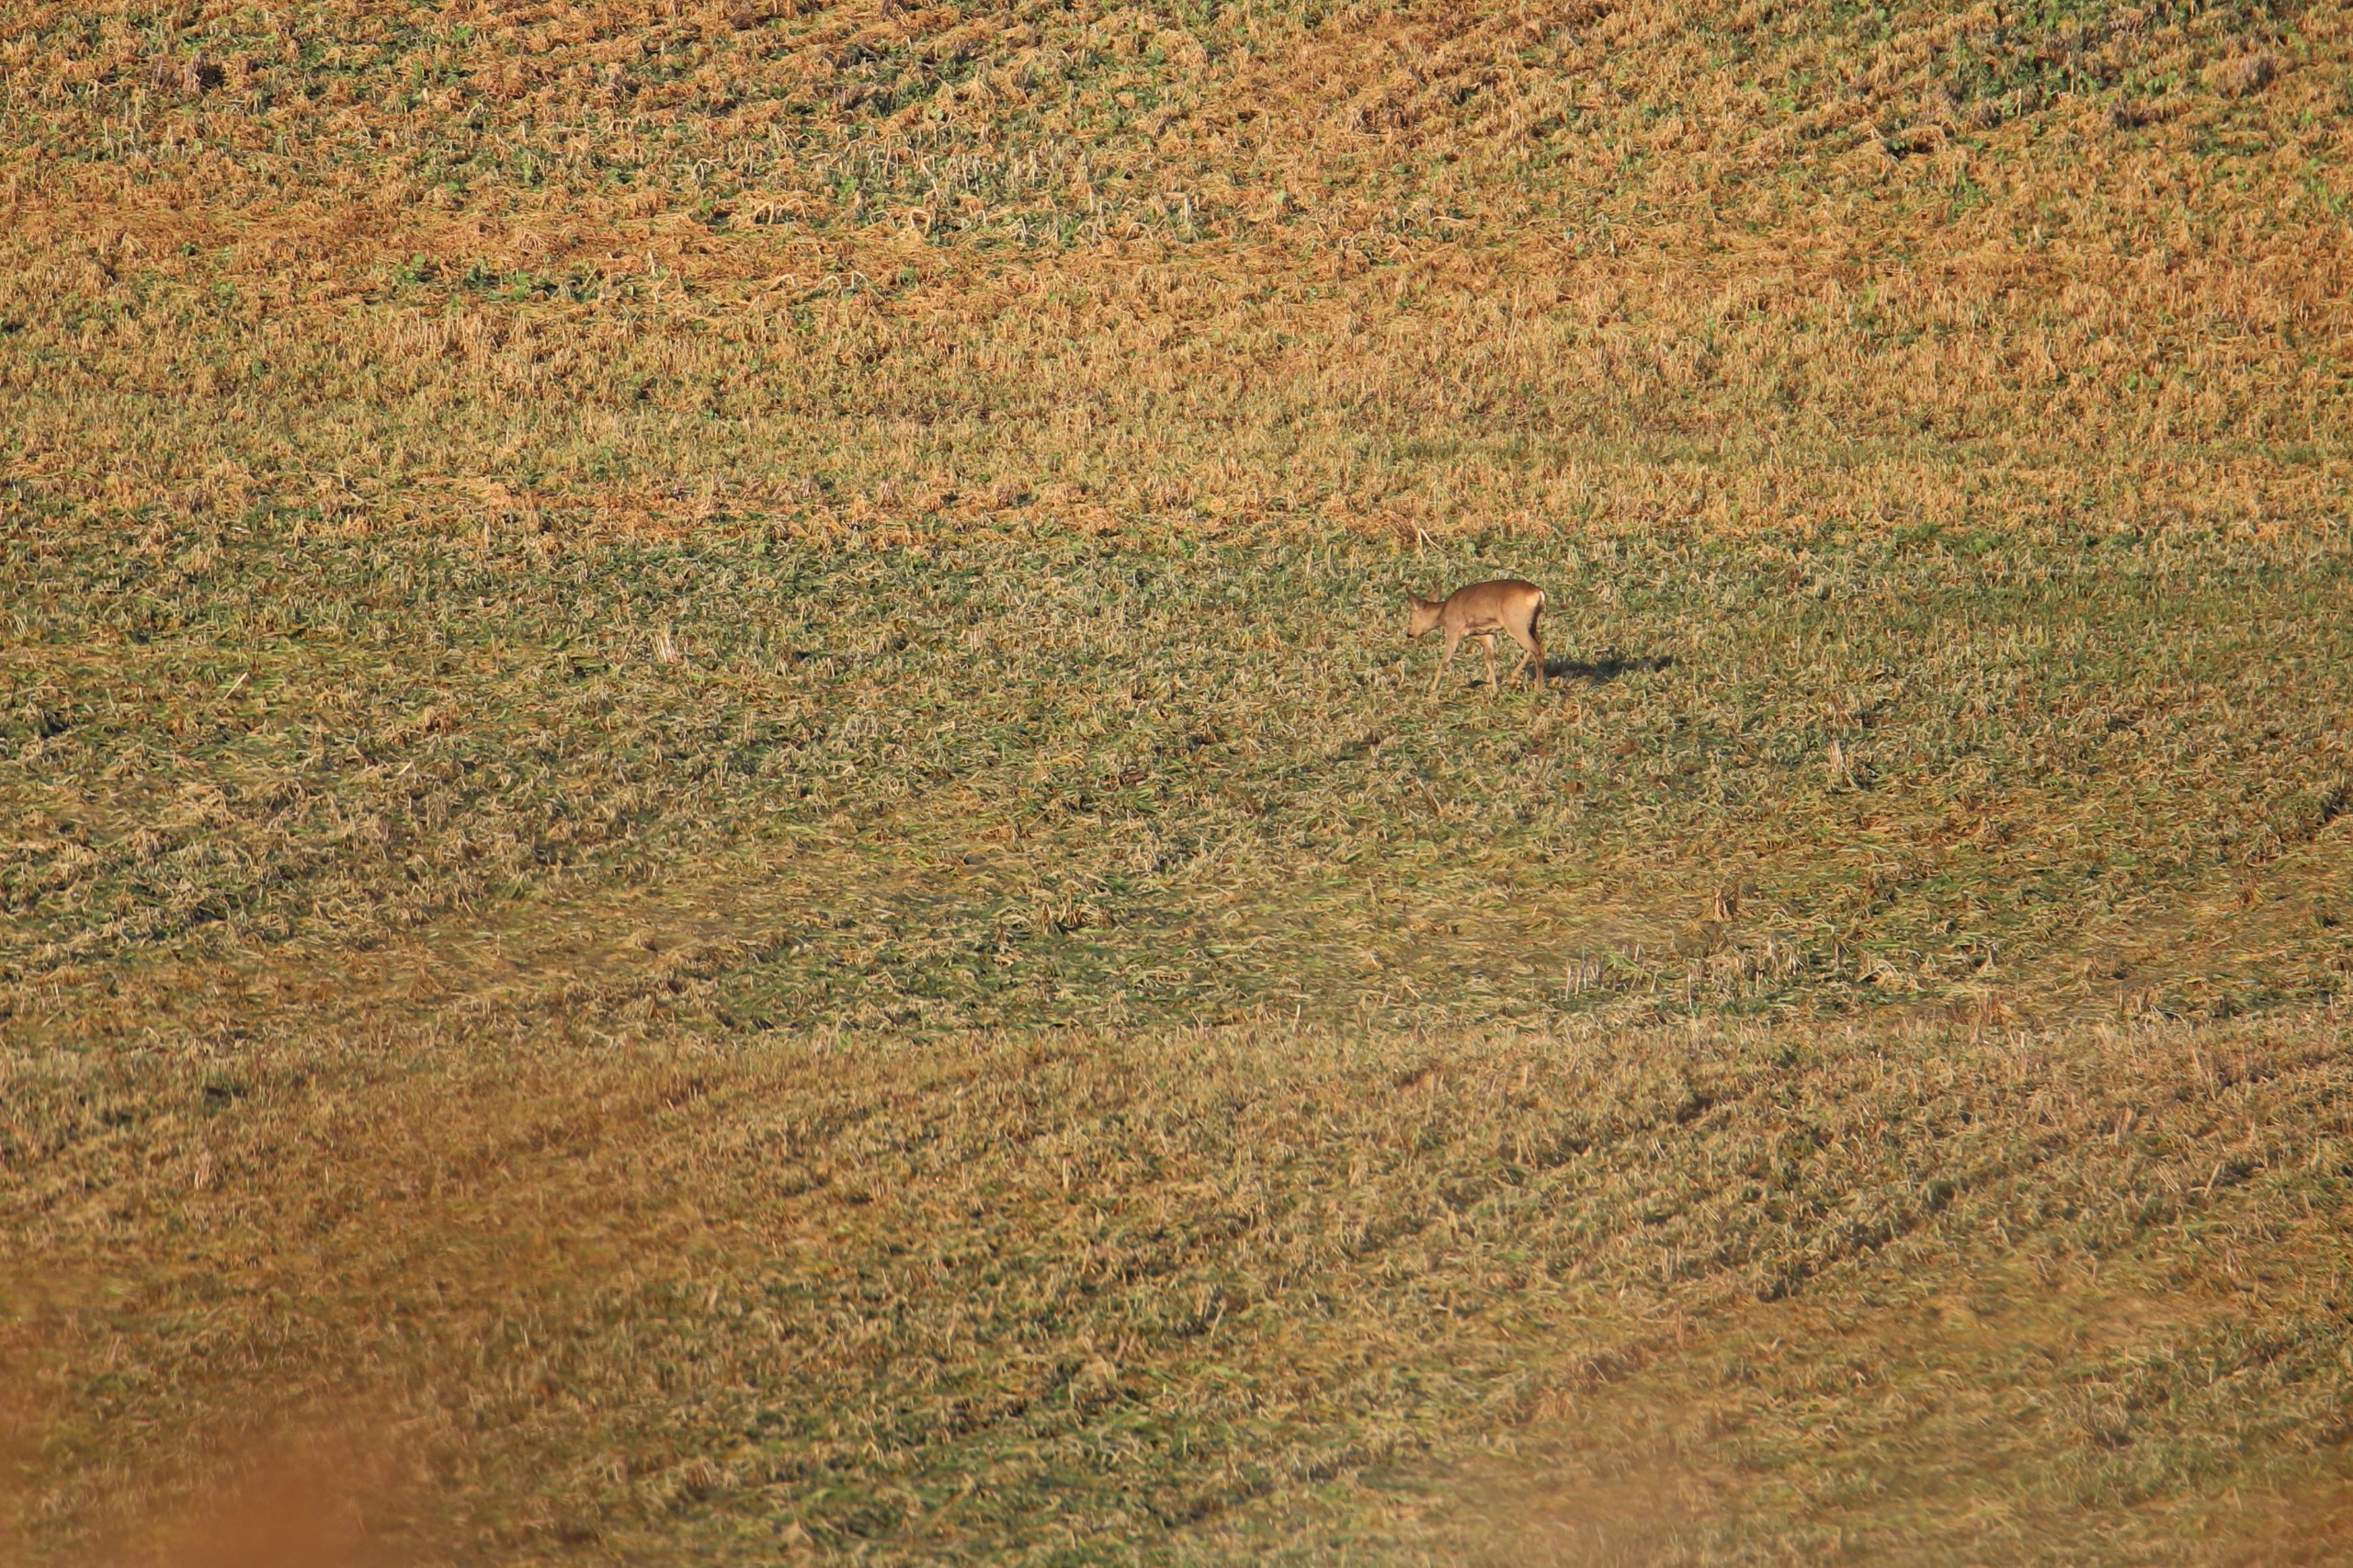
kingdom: Animalia
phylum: Chordata
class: Mammalia
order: Artiodactyla
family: Cervidae
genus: Capreolus
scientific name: Capreolus capreolus
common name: Rådyr
